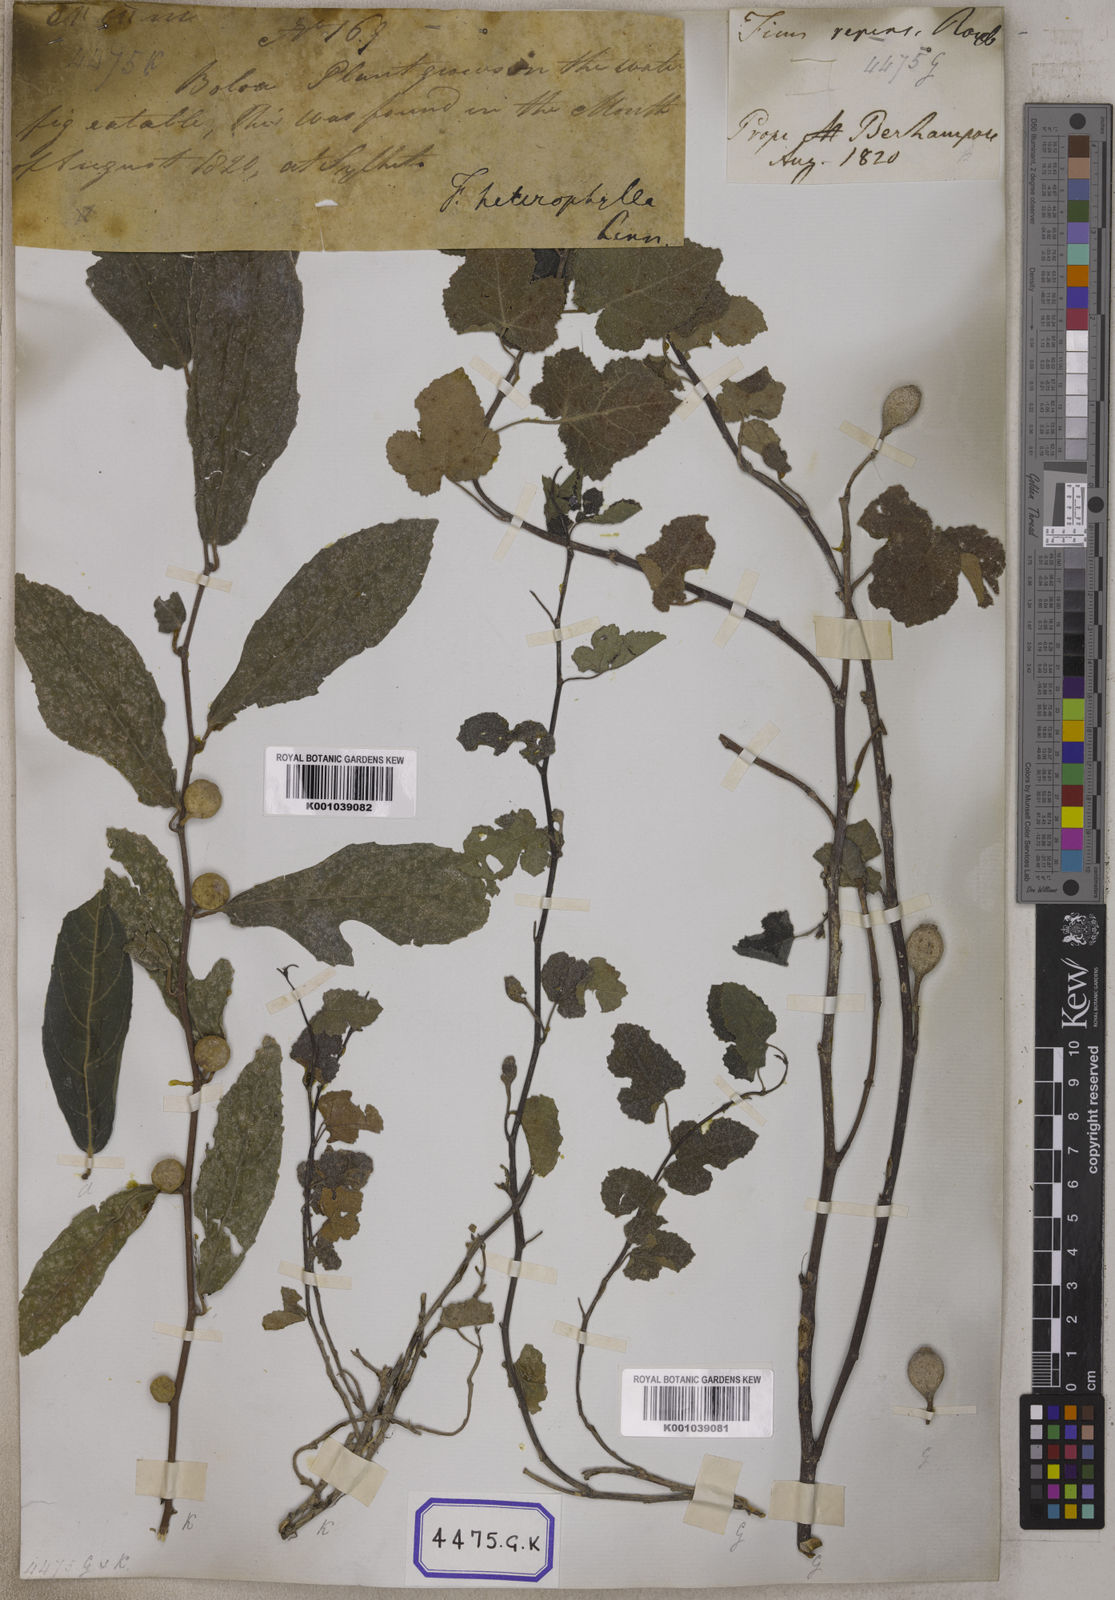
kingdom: Plantae
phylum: Tracheophyta
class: Magnoliopsida
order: Rosales
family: Moraceae
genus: Ficus
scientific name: Ficus
